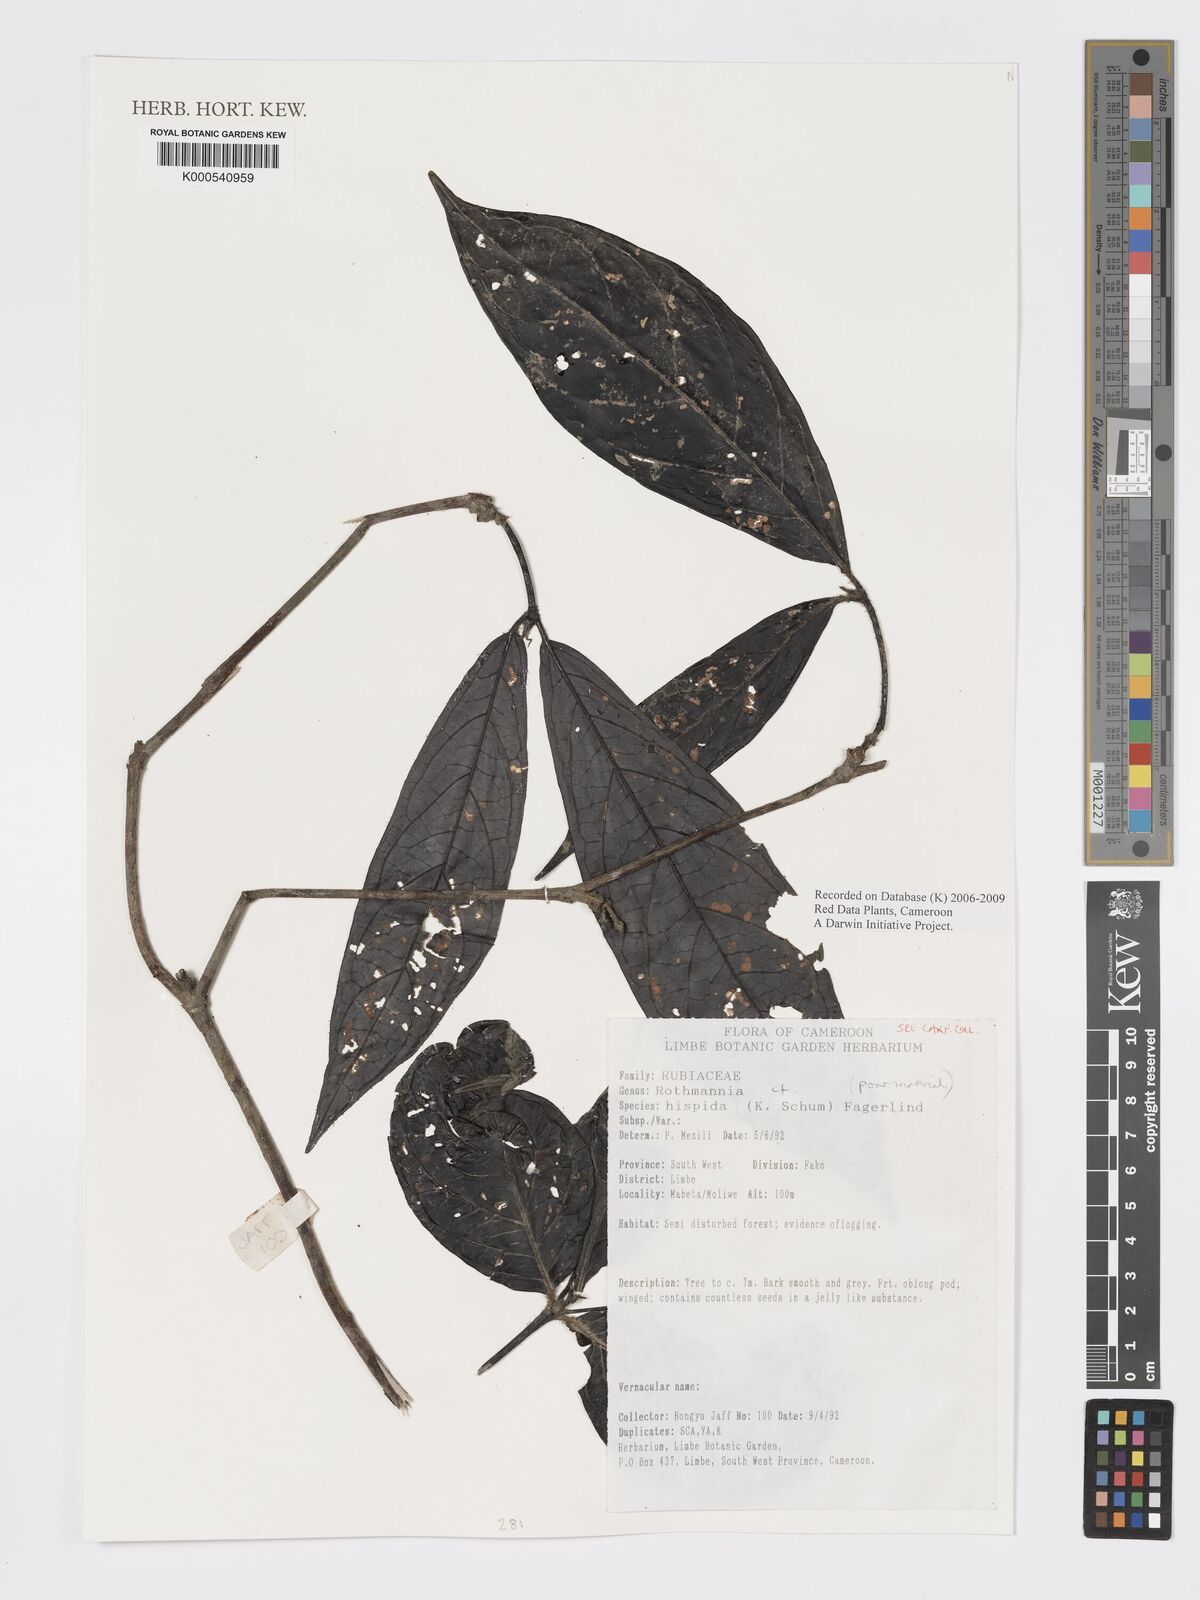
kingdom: Plantae
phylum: Tracheophyta
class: Magnoliopsida
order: Gentianales
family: Rubiaceae
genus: Rothmannia
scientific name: Rothmannia hispida
